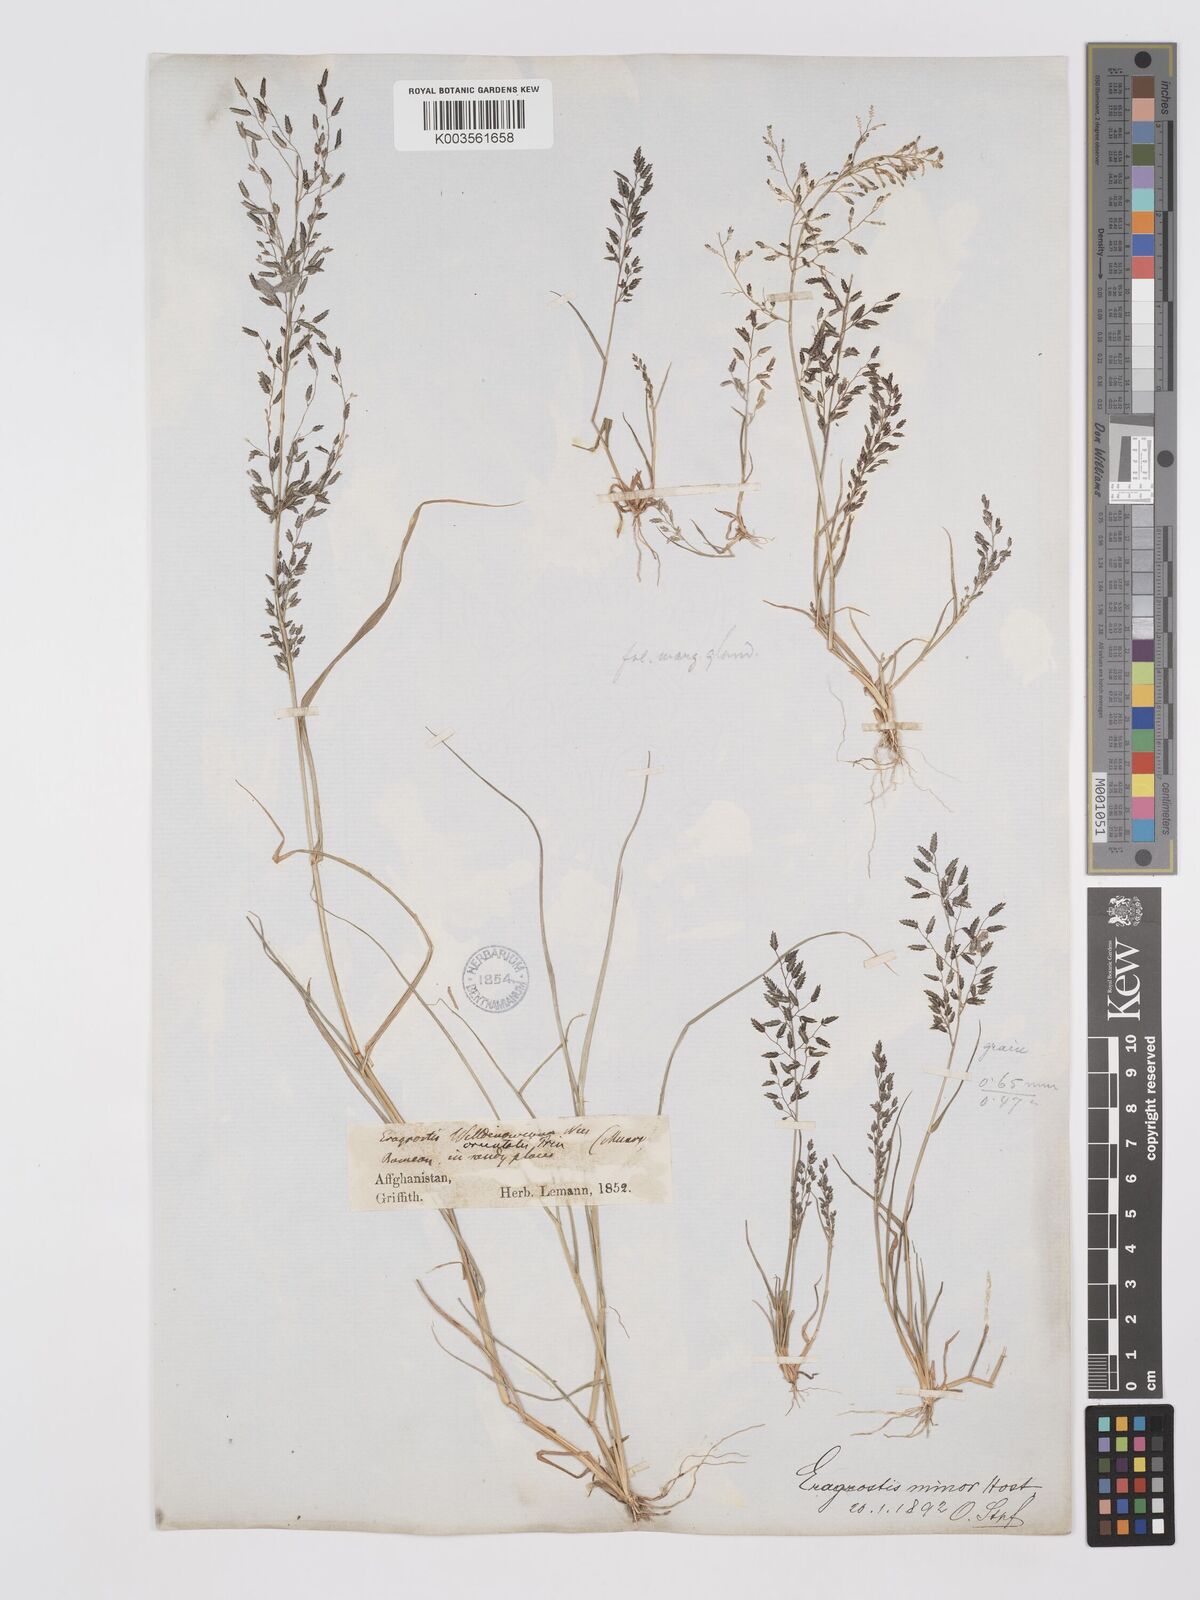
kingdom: Plantae
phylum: Tracheophyta
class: Liliopsida
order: Poales
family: Poaceae
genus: Eragrostis
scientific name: Eragrostis minor
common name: Small love-grass
